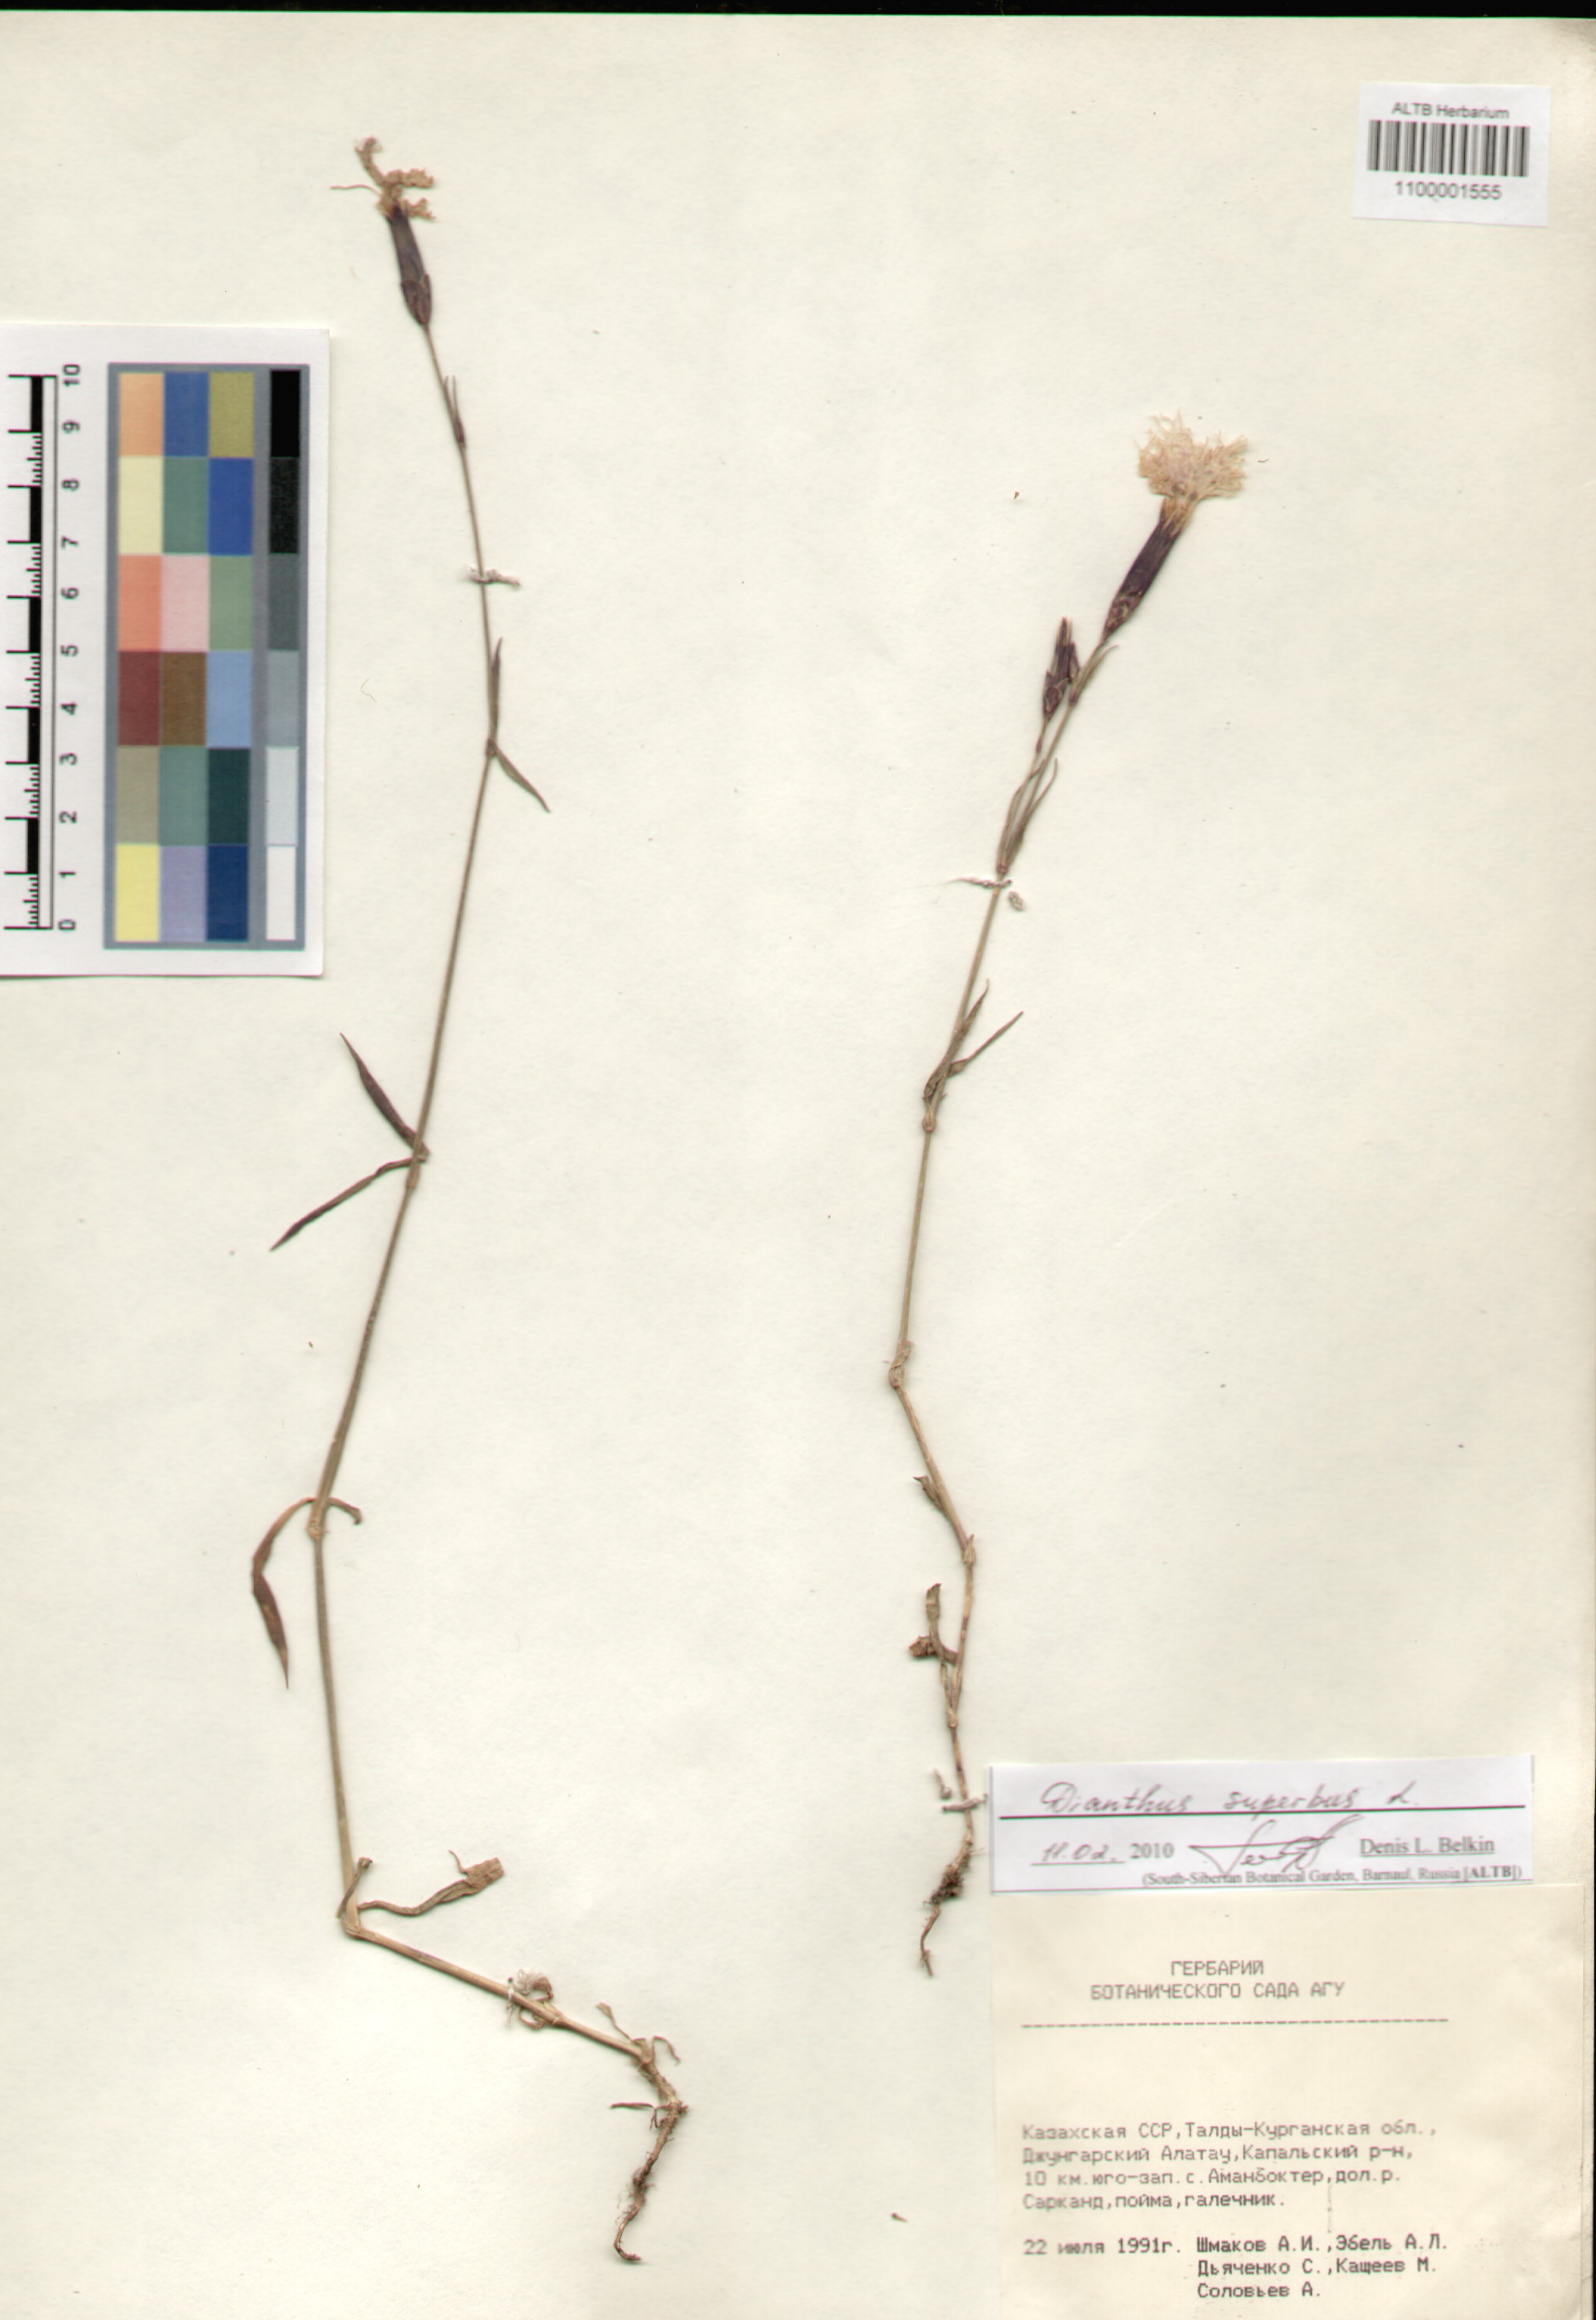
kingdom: Plantae
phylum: Tracheophyta
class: Magnoliopsida
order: Caryophyllales
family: Caryophyllaceae
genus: Dianthus
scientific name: Dianthus superbus
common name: Fringed pink
